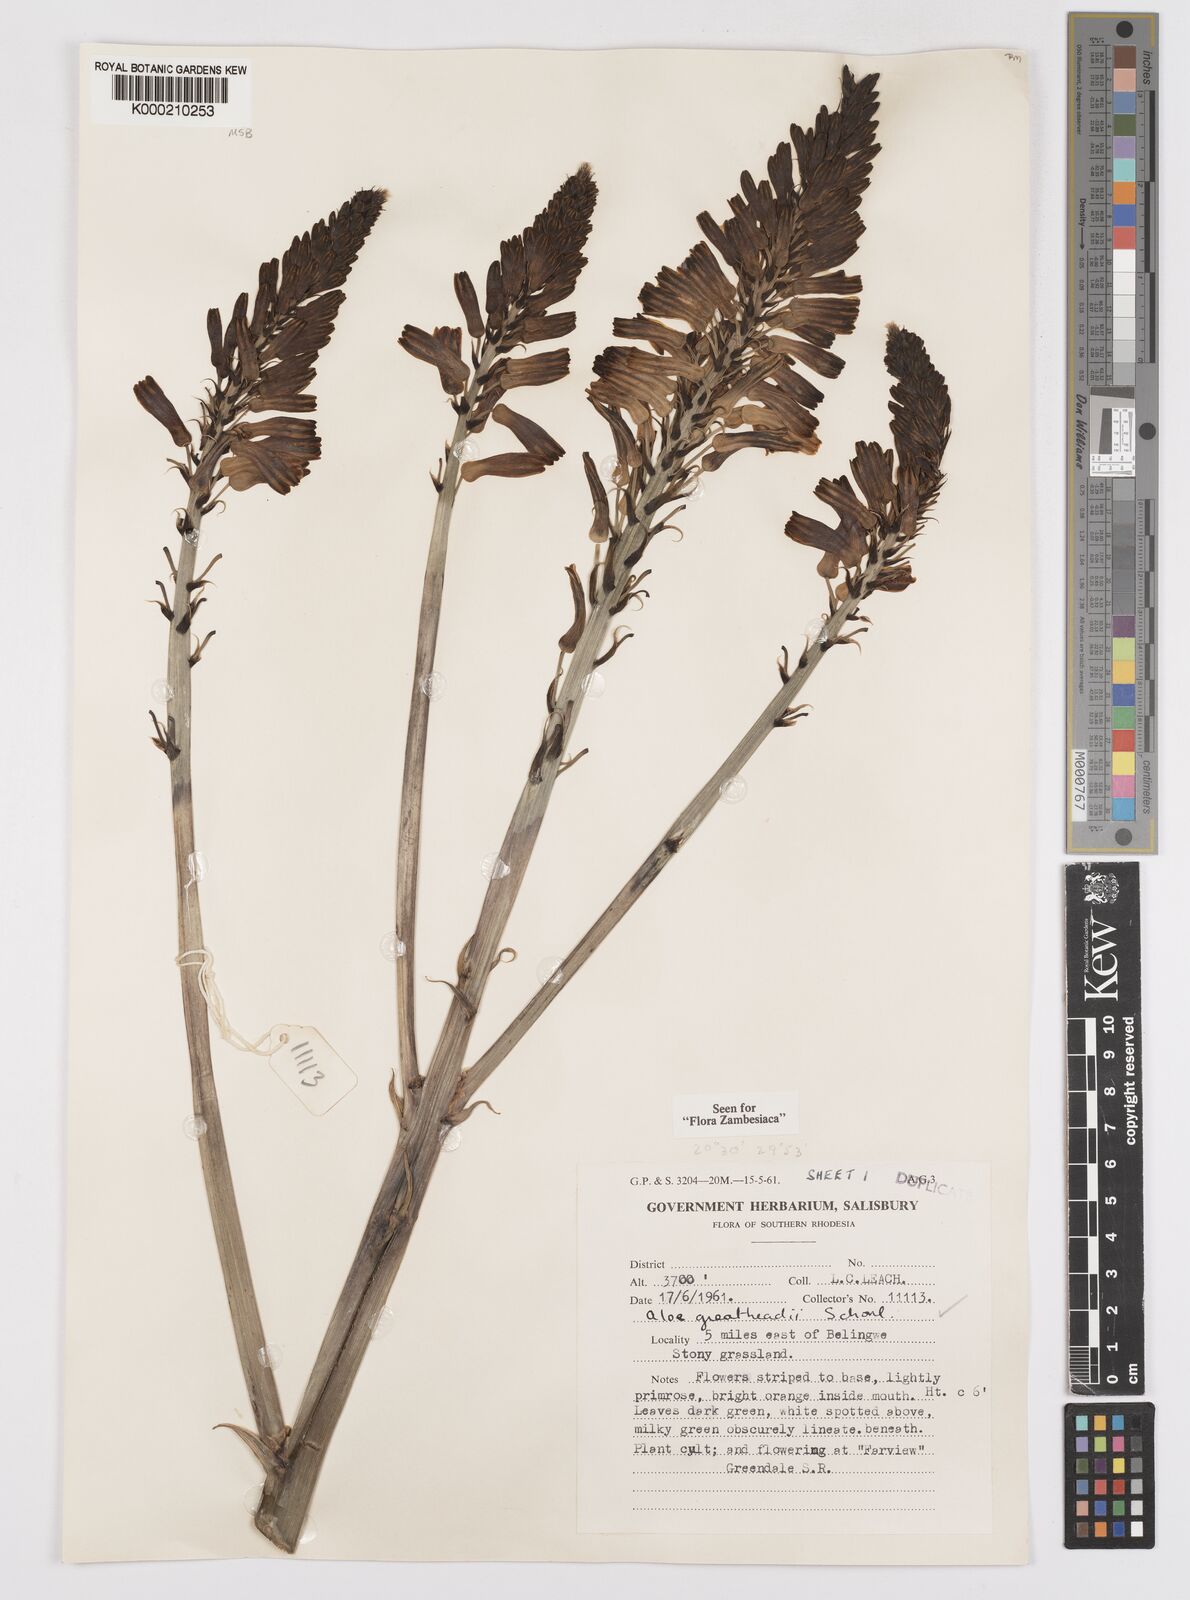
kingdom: Plantae
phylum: Tracheophyta
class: Liliopsida
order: Asparagales
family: Asphodelaceae
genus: Aloe
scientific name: Aloe greatheadii
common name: Greathead's aloe
